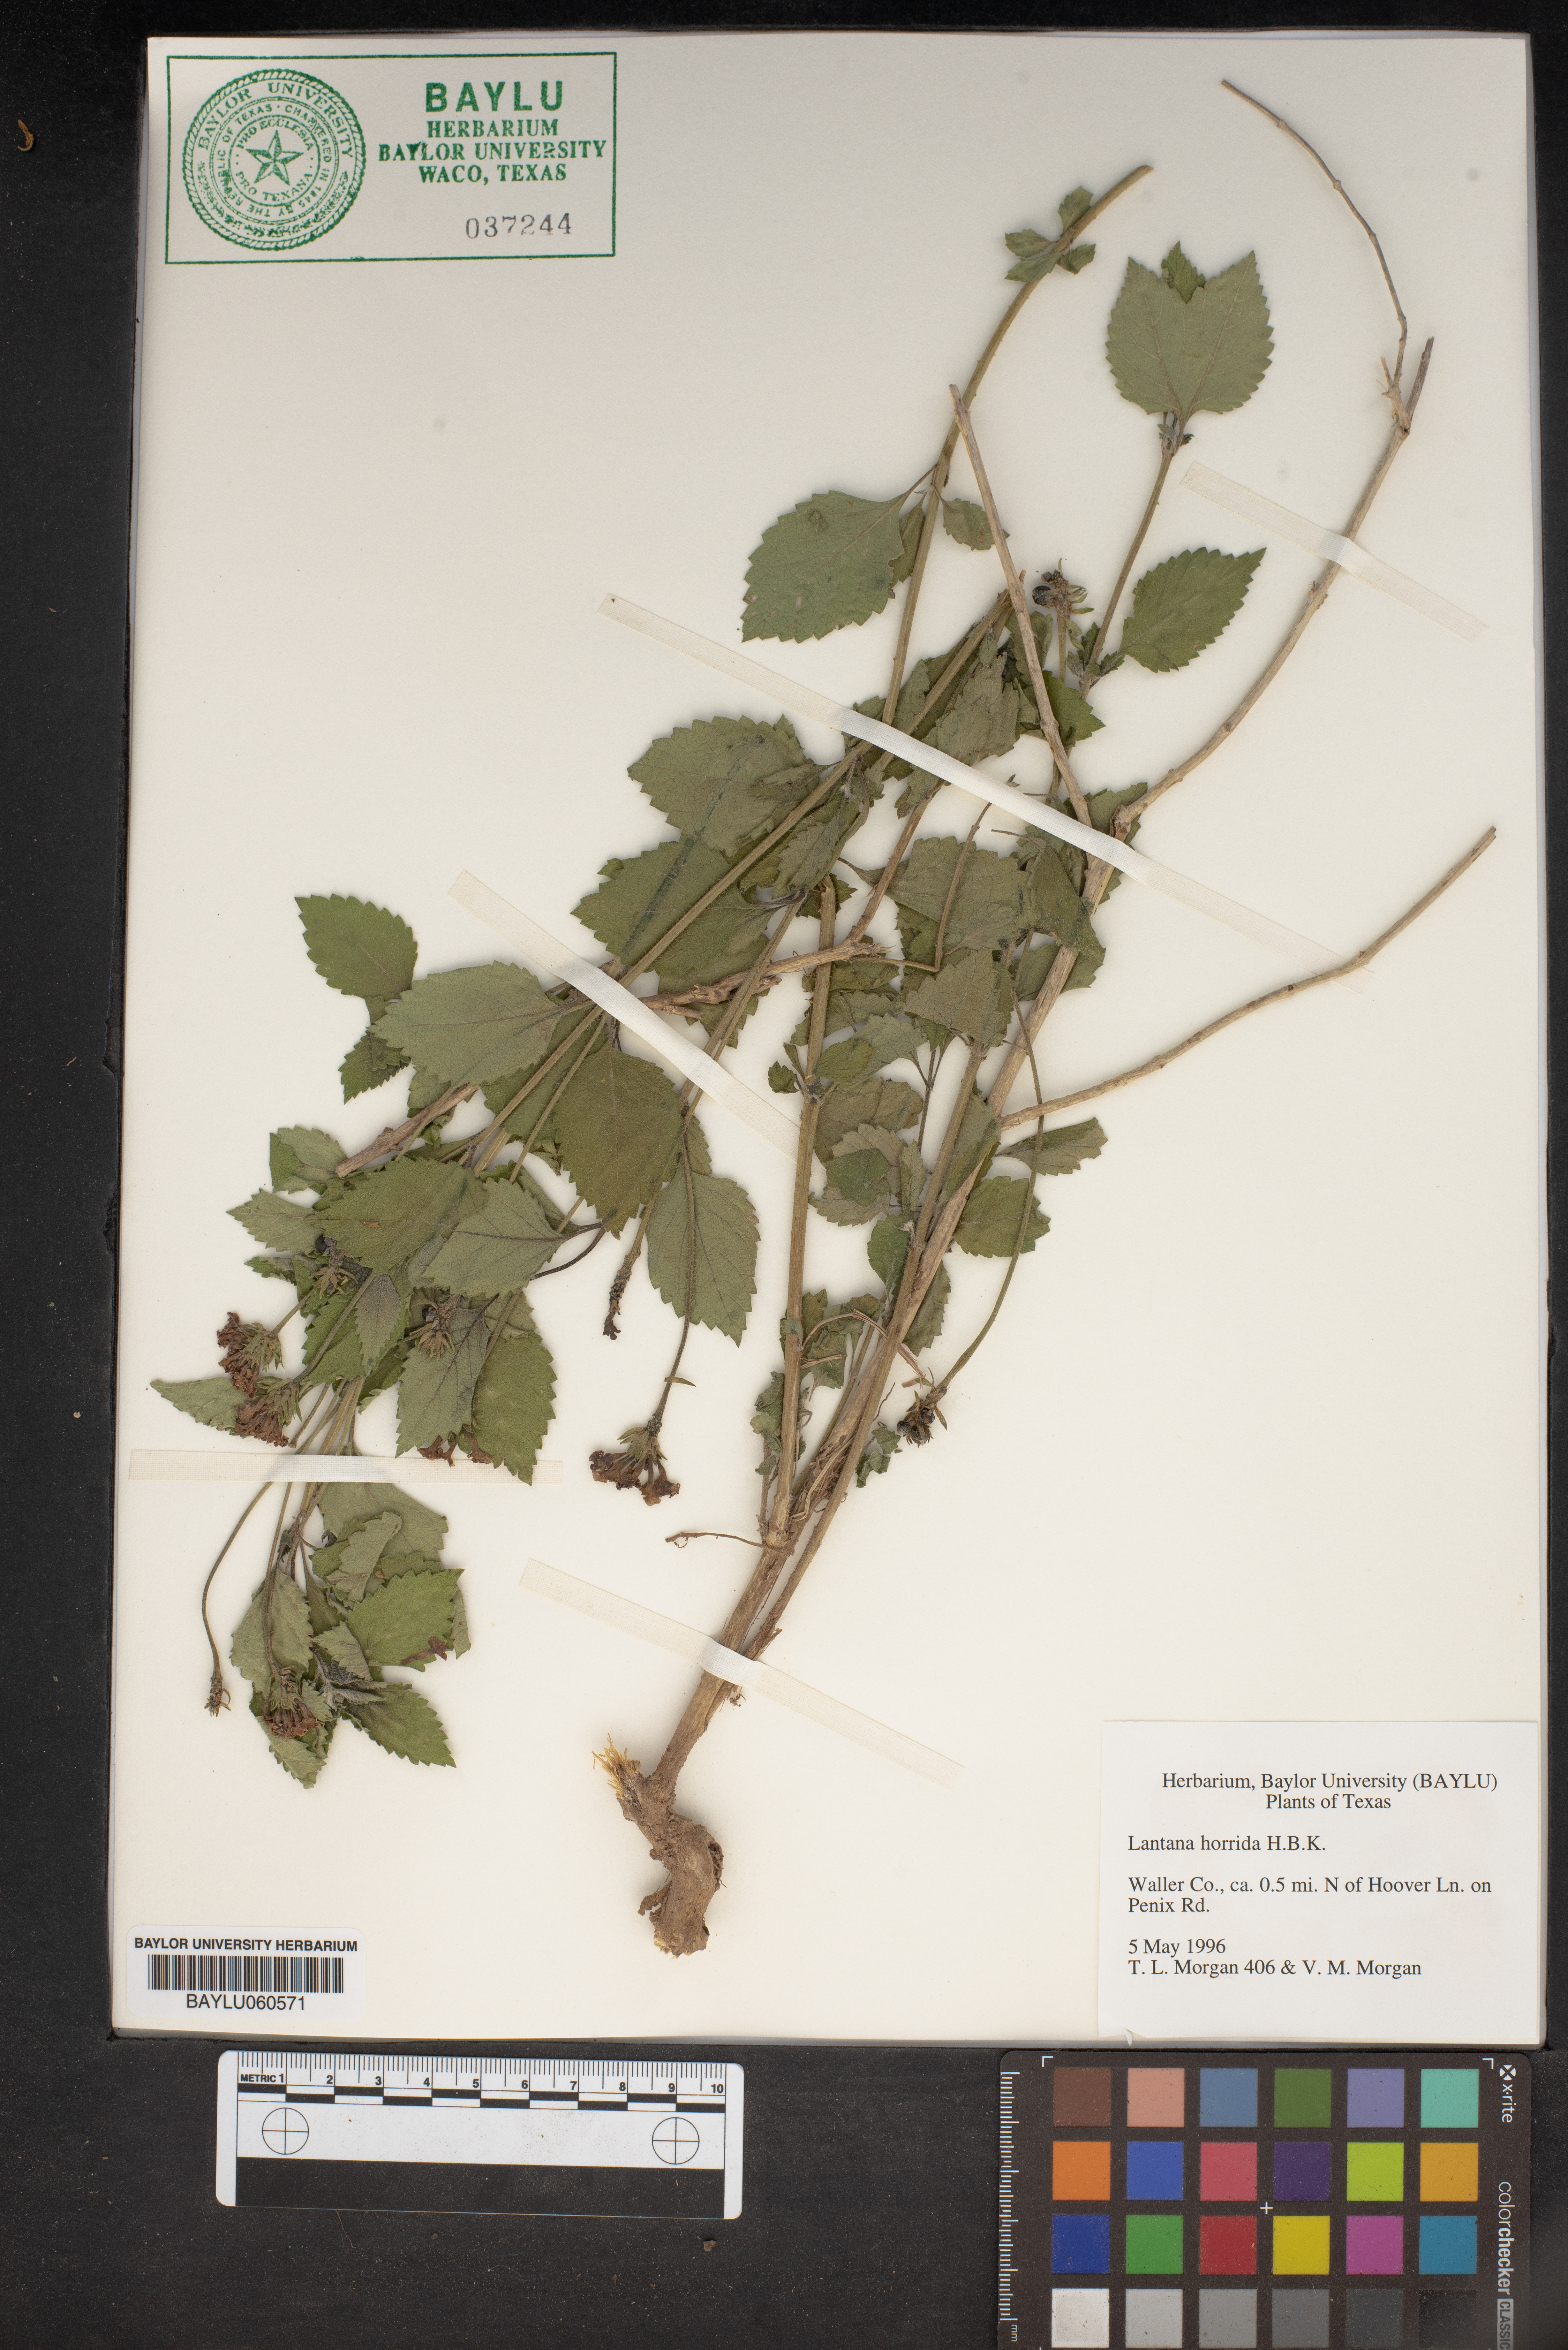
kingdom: Plantae
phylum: Tracheophyta
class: Magnoliopsida
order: Lamiales
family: Verbenaceae
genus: Lantana
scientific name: Lantana horrida
